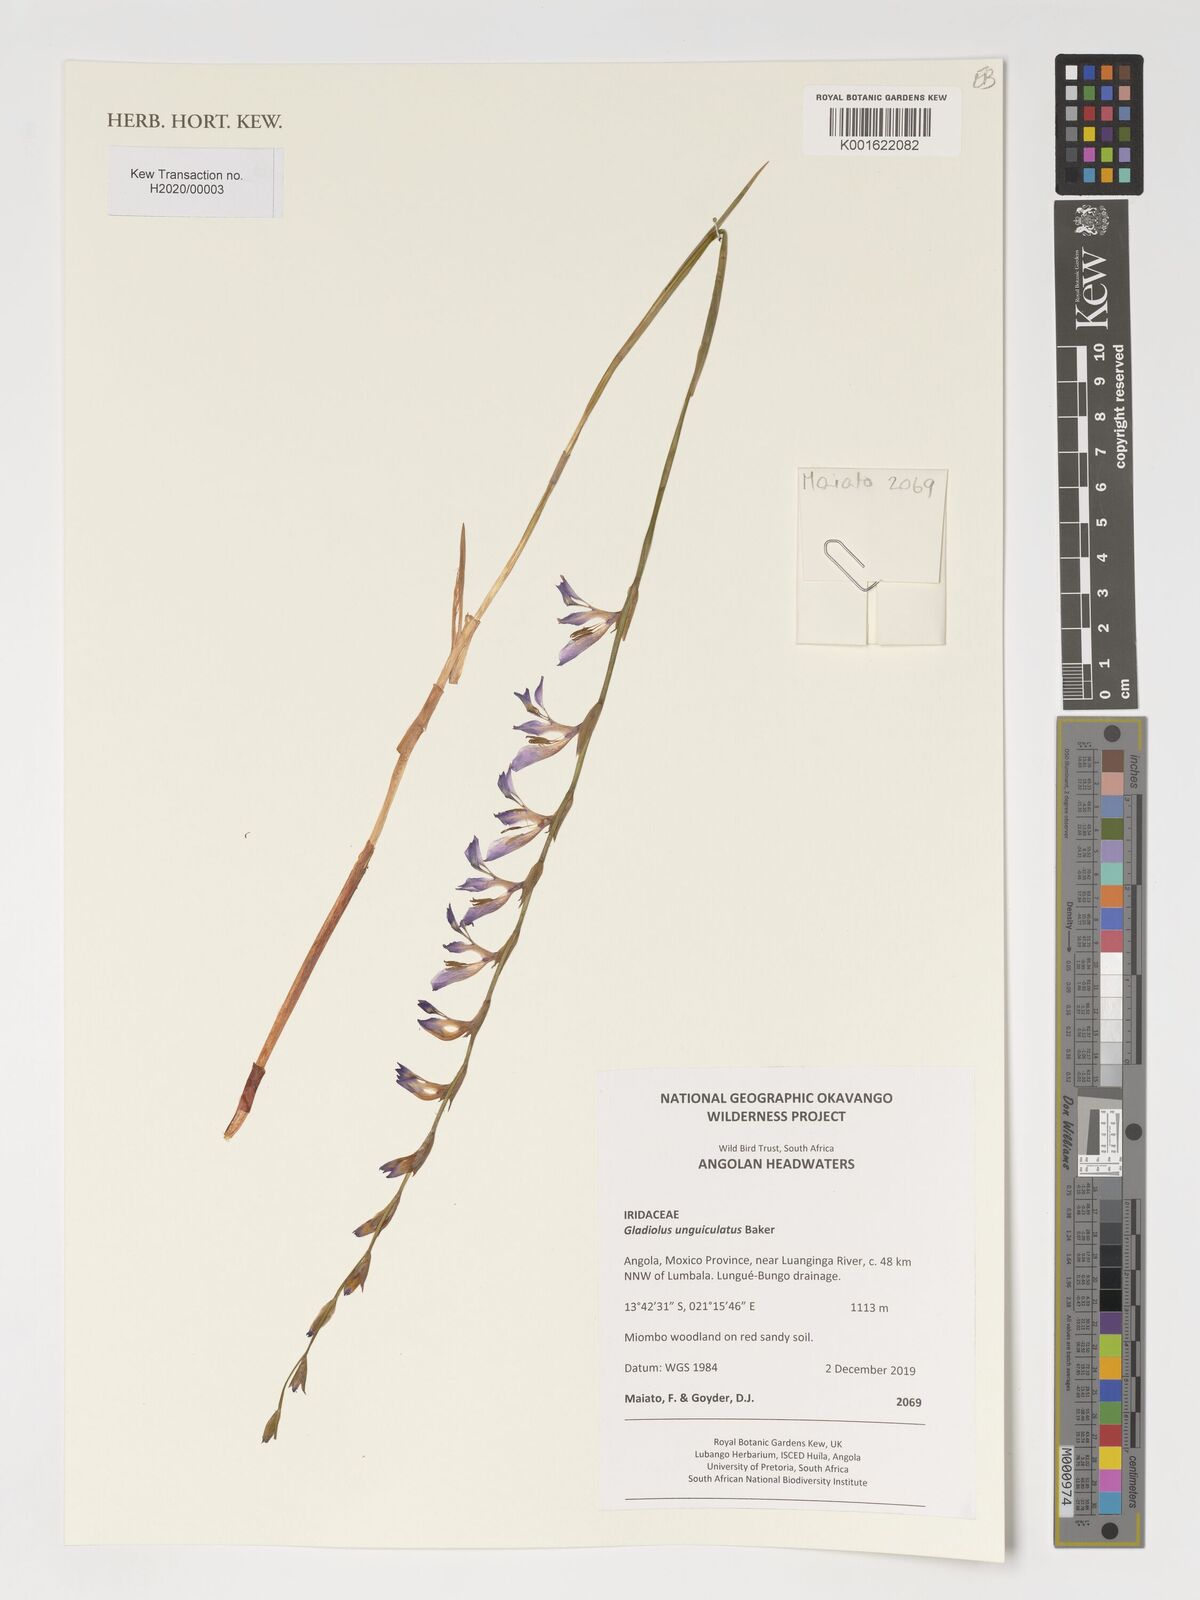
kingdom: Plantae
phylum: Tracheophyta
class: Liliopsida
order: Asparagales
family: Iridaceae
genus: Gladiolus
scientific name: Gladiolus unguiculatus
